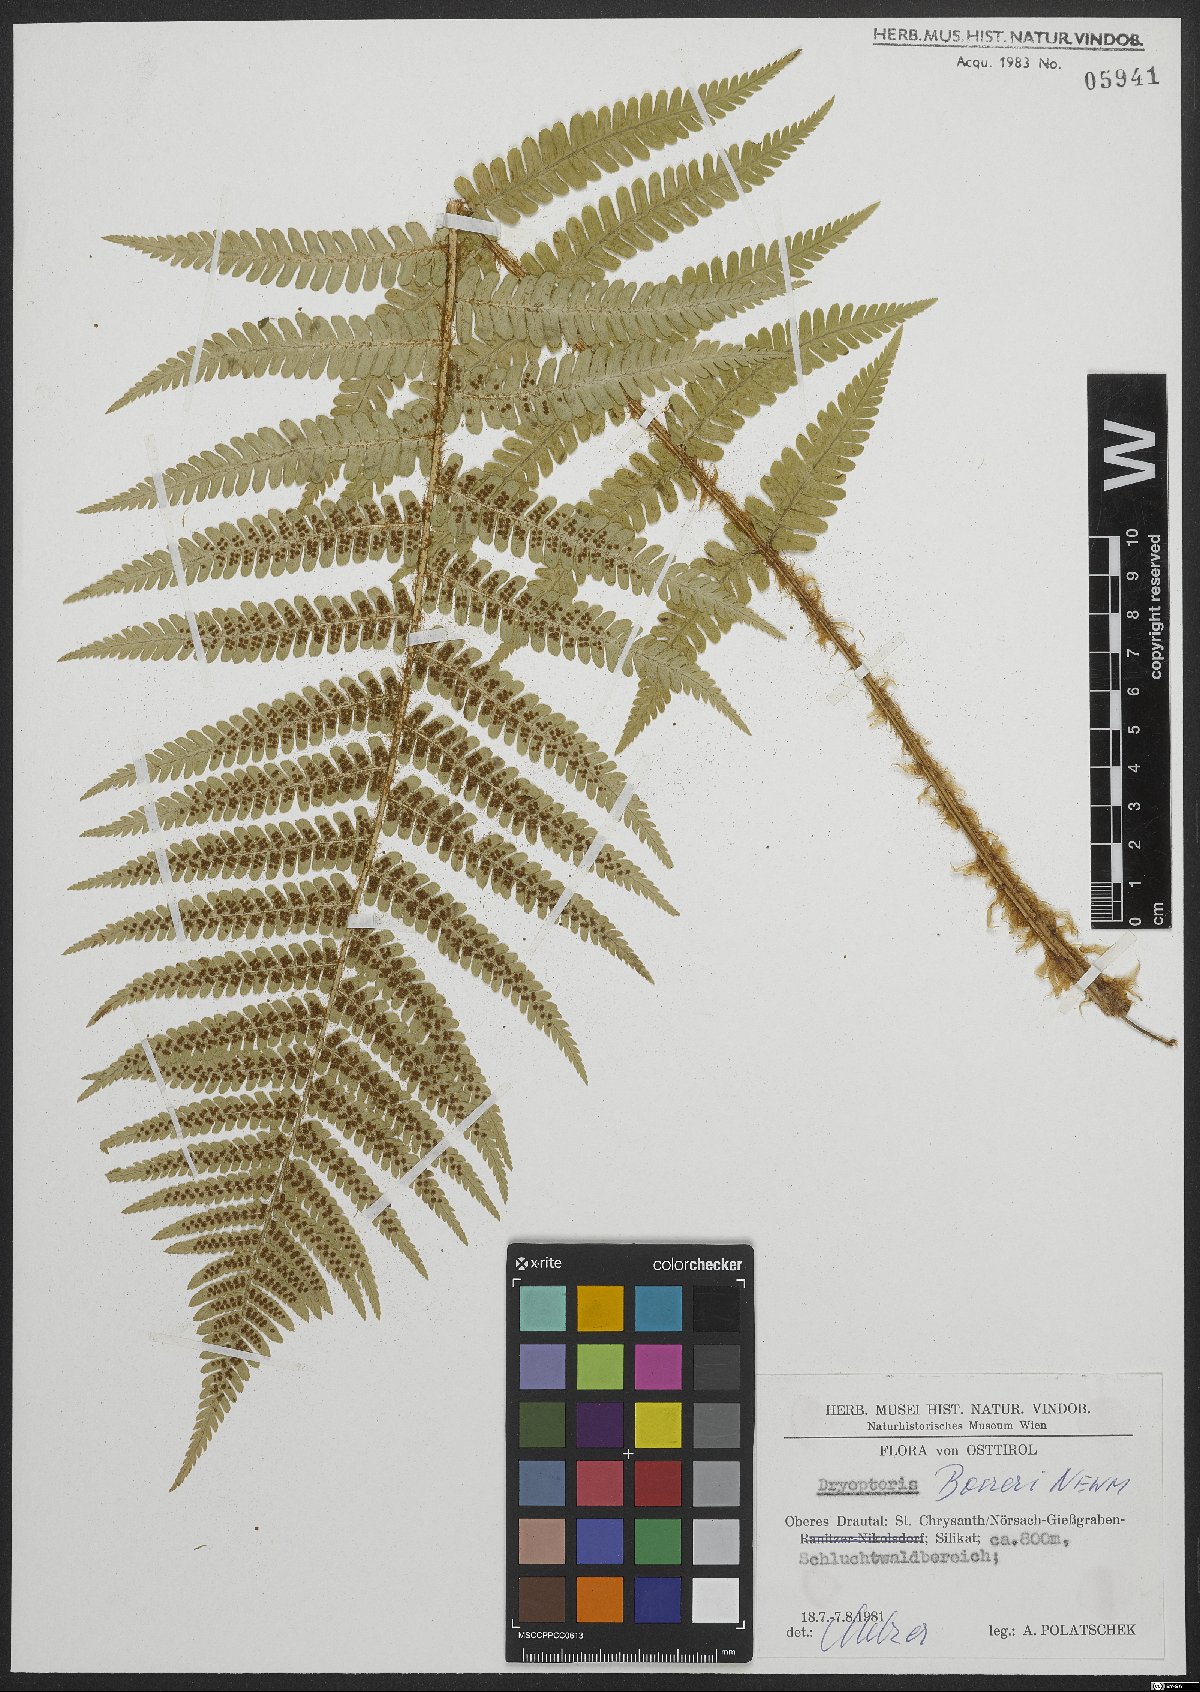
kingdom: Plantae
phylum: Tracheophyta
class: Polypodiopsida
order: Polypodiales
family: Dryopteridaceae
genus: Dryopteris
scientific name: Dryopteris borreri
